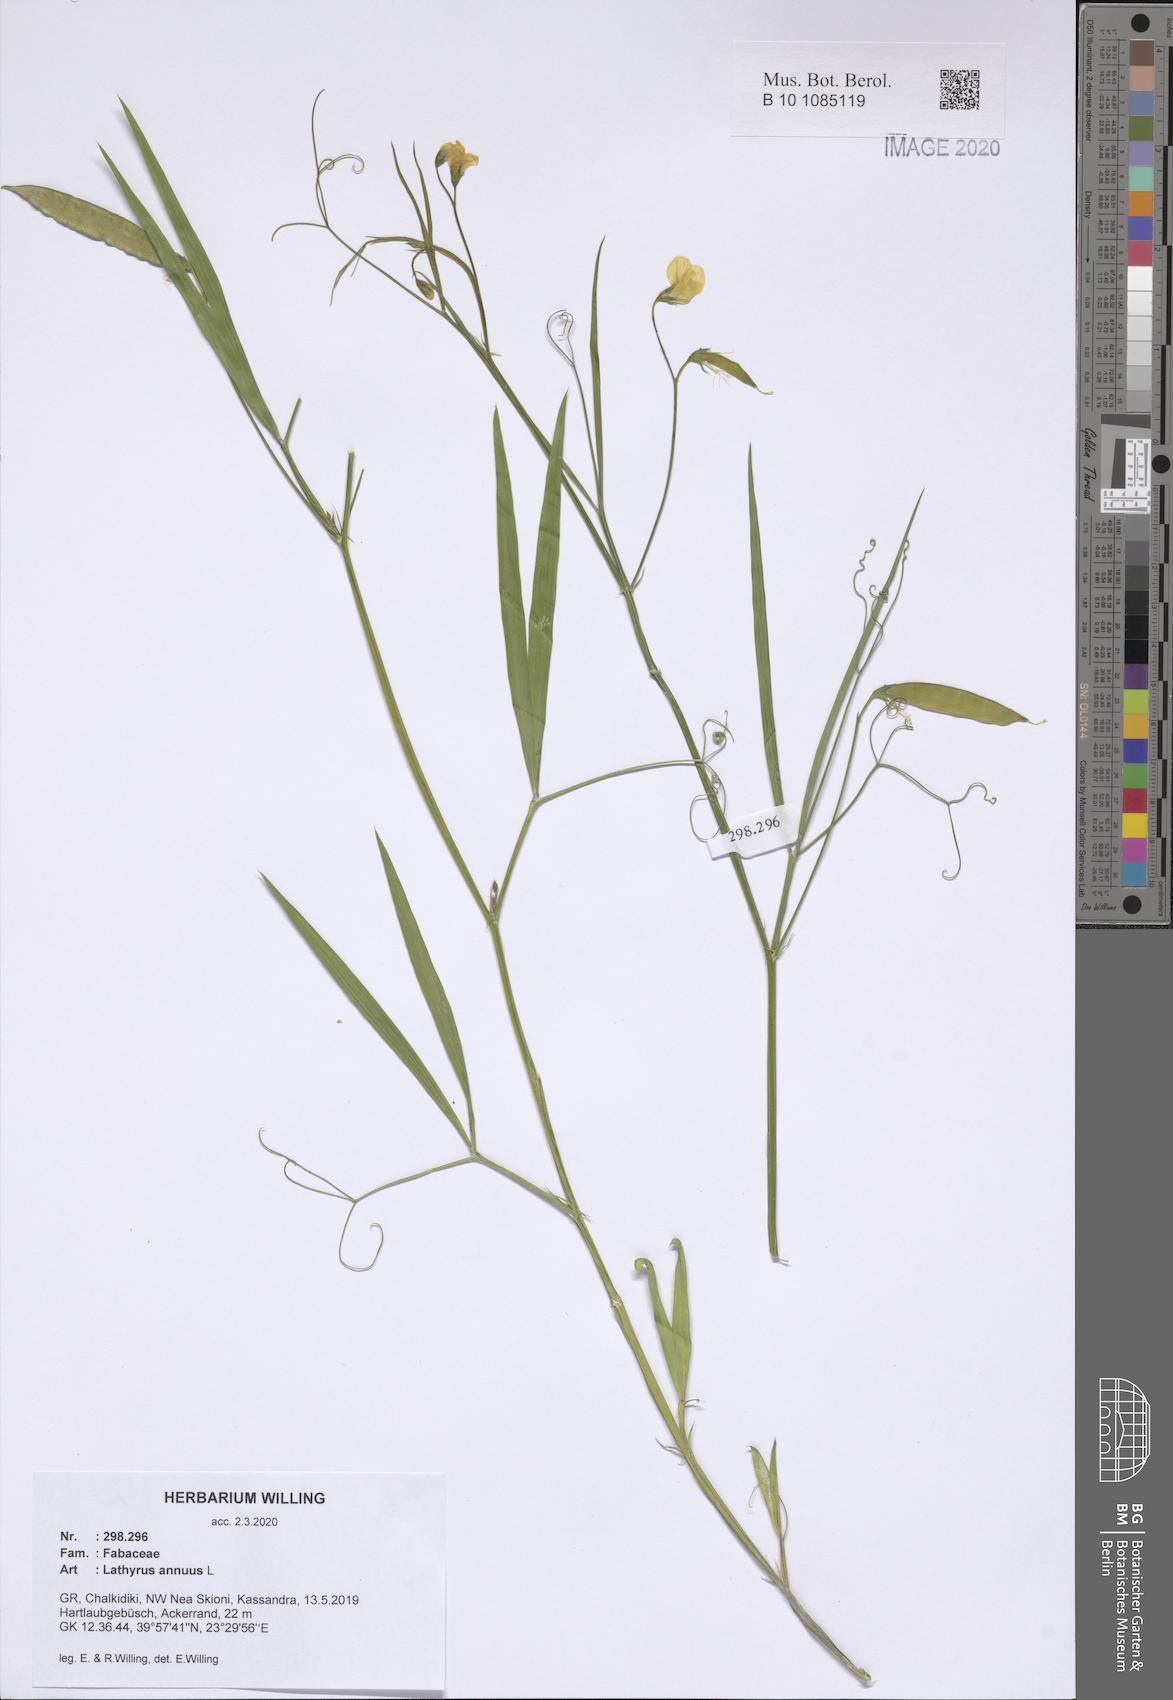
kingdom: Plantae
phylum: Tracheophyta
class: Magnoliopsida
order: Fabales
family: Fabaceae
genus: Lathyrus
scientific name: Lathyrus annuus
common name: Fodder pea
